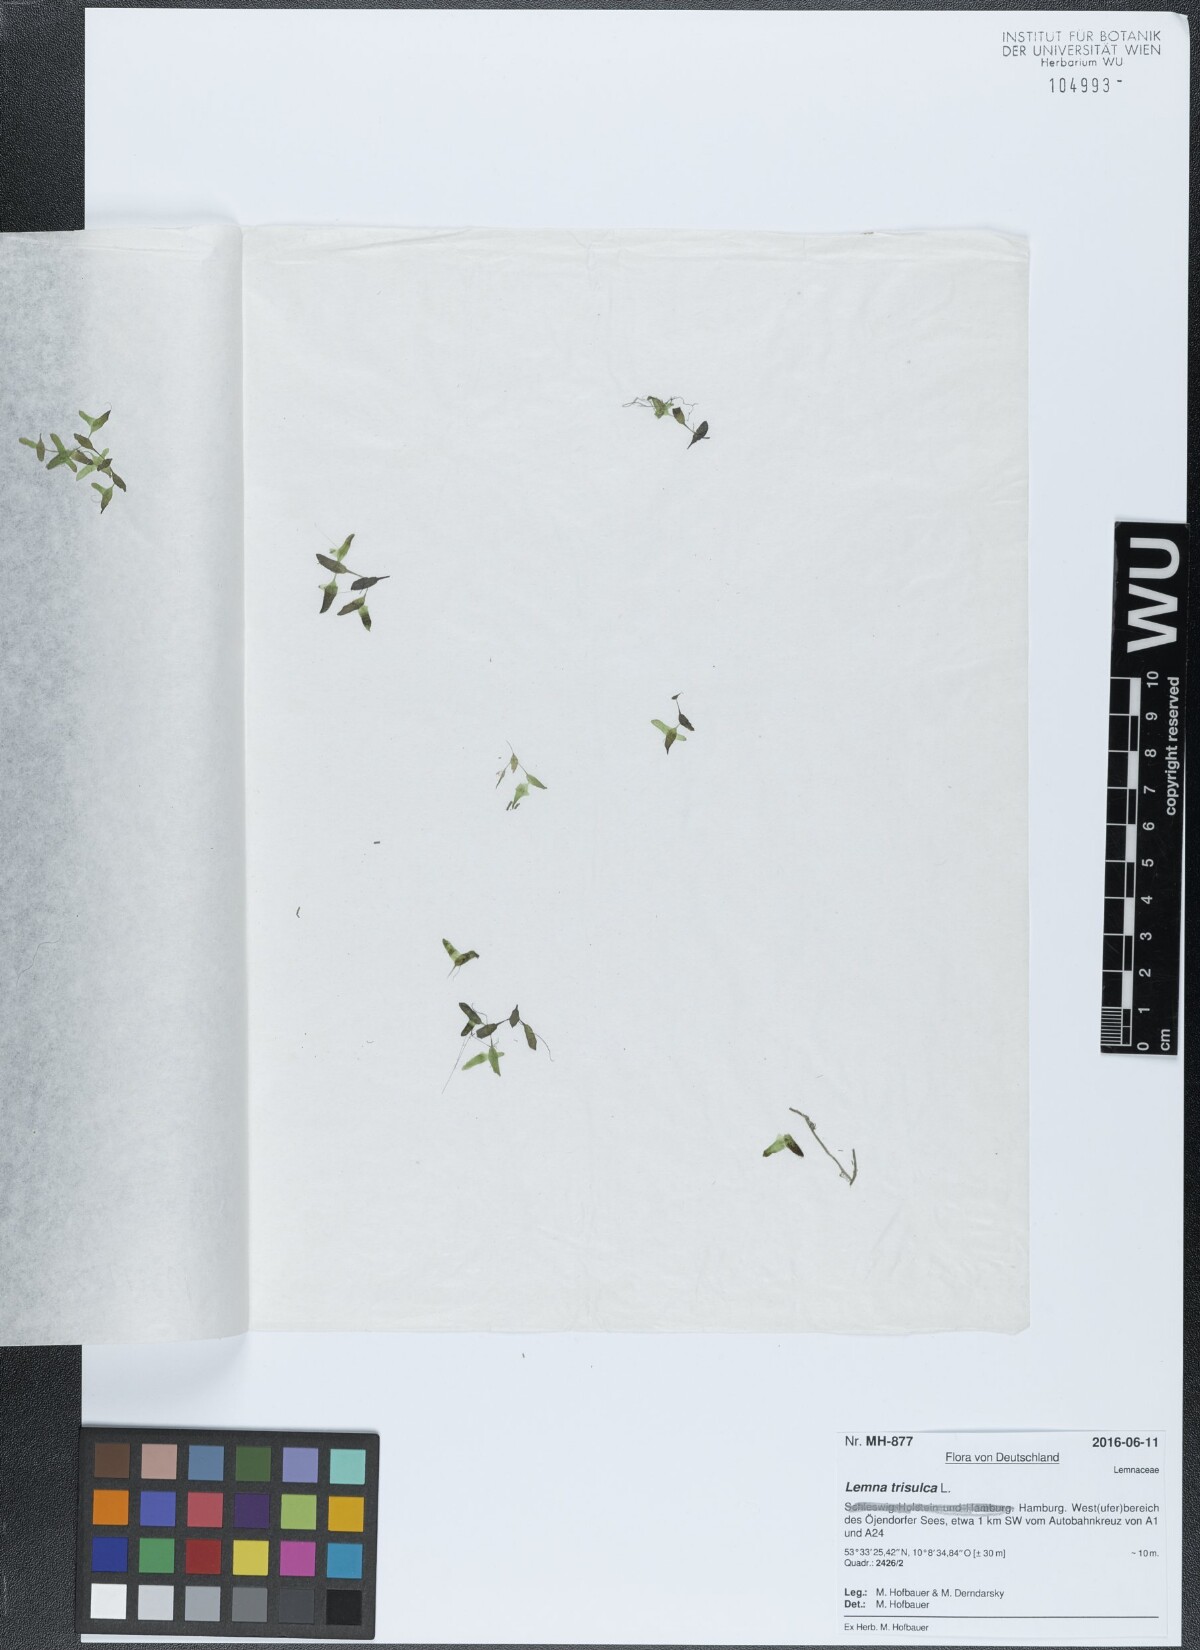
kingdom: Plantae
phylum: Tracheophyta
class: Liliopsida
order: Alismatales
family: Araceae
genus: Lemna
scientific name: Lemna trisulca
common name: Ivy-leaved duckweed
